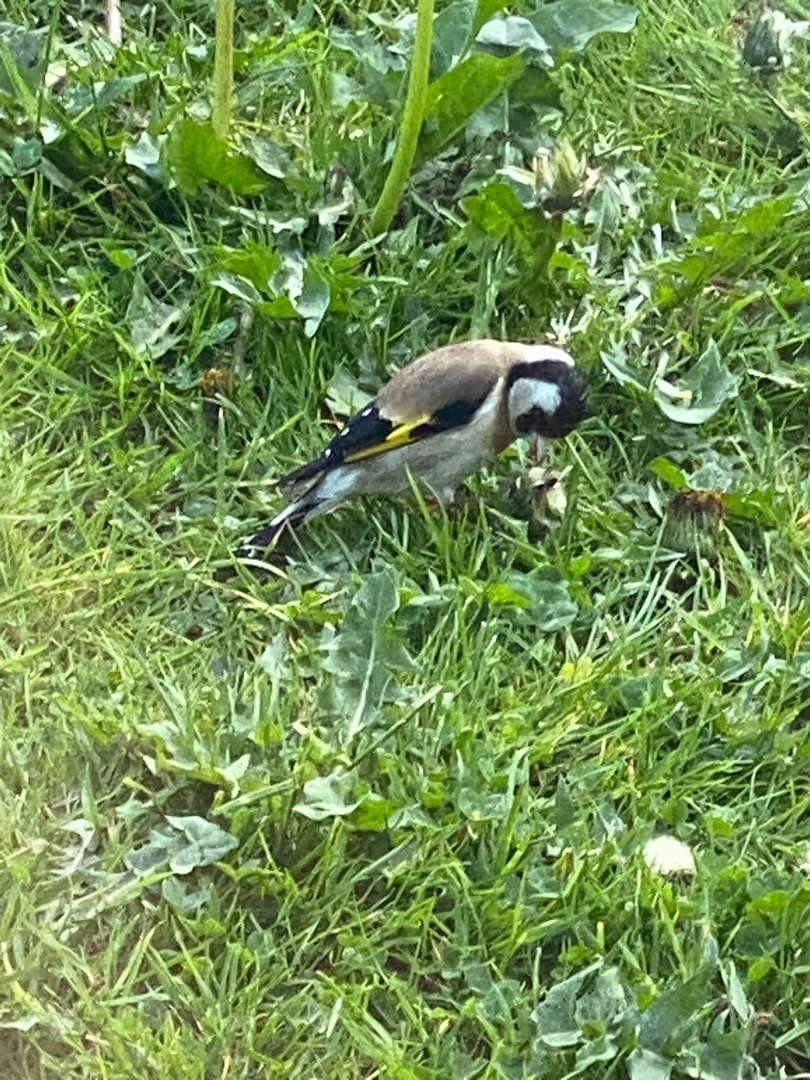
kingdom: Animalia
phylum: Chordata
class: Aves
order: Passeriformes
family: Fringillidae
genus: Carduelis
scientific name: Carduelis carduelis
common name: Stillits
